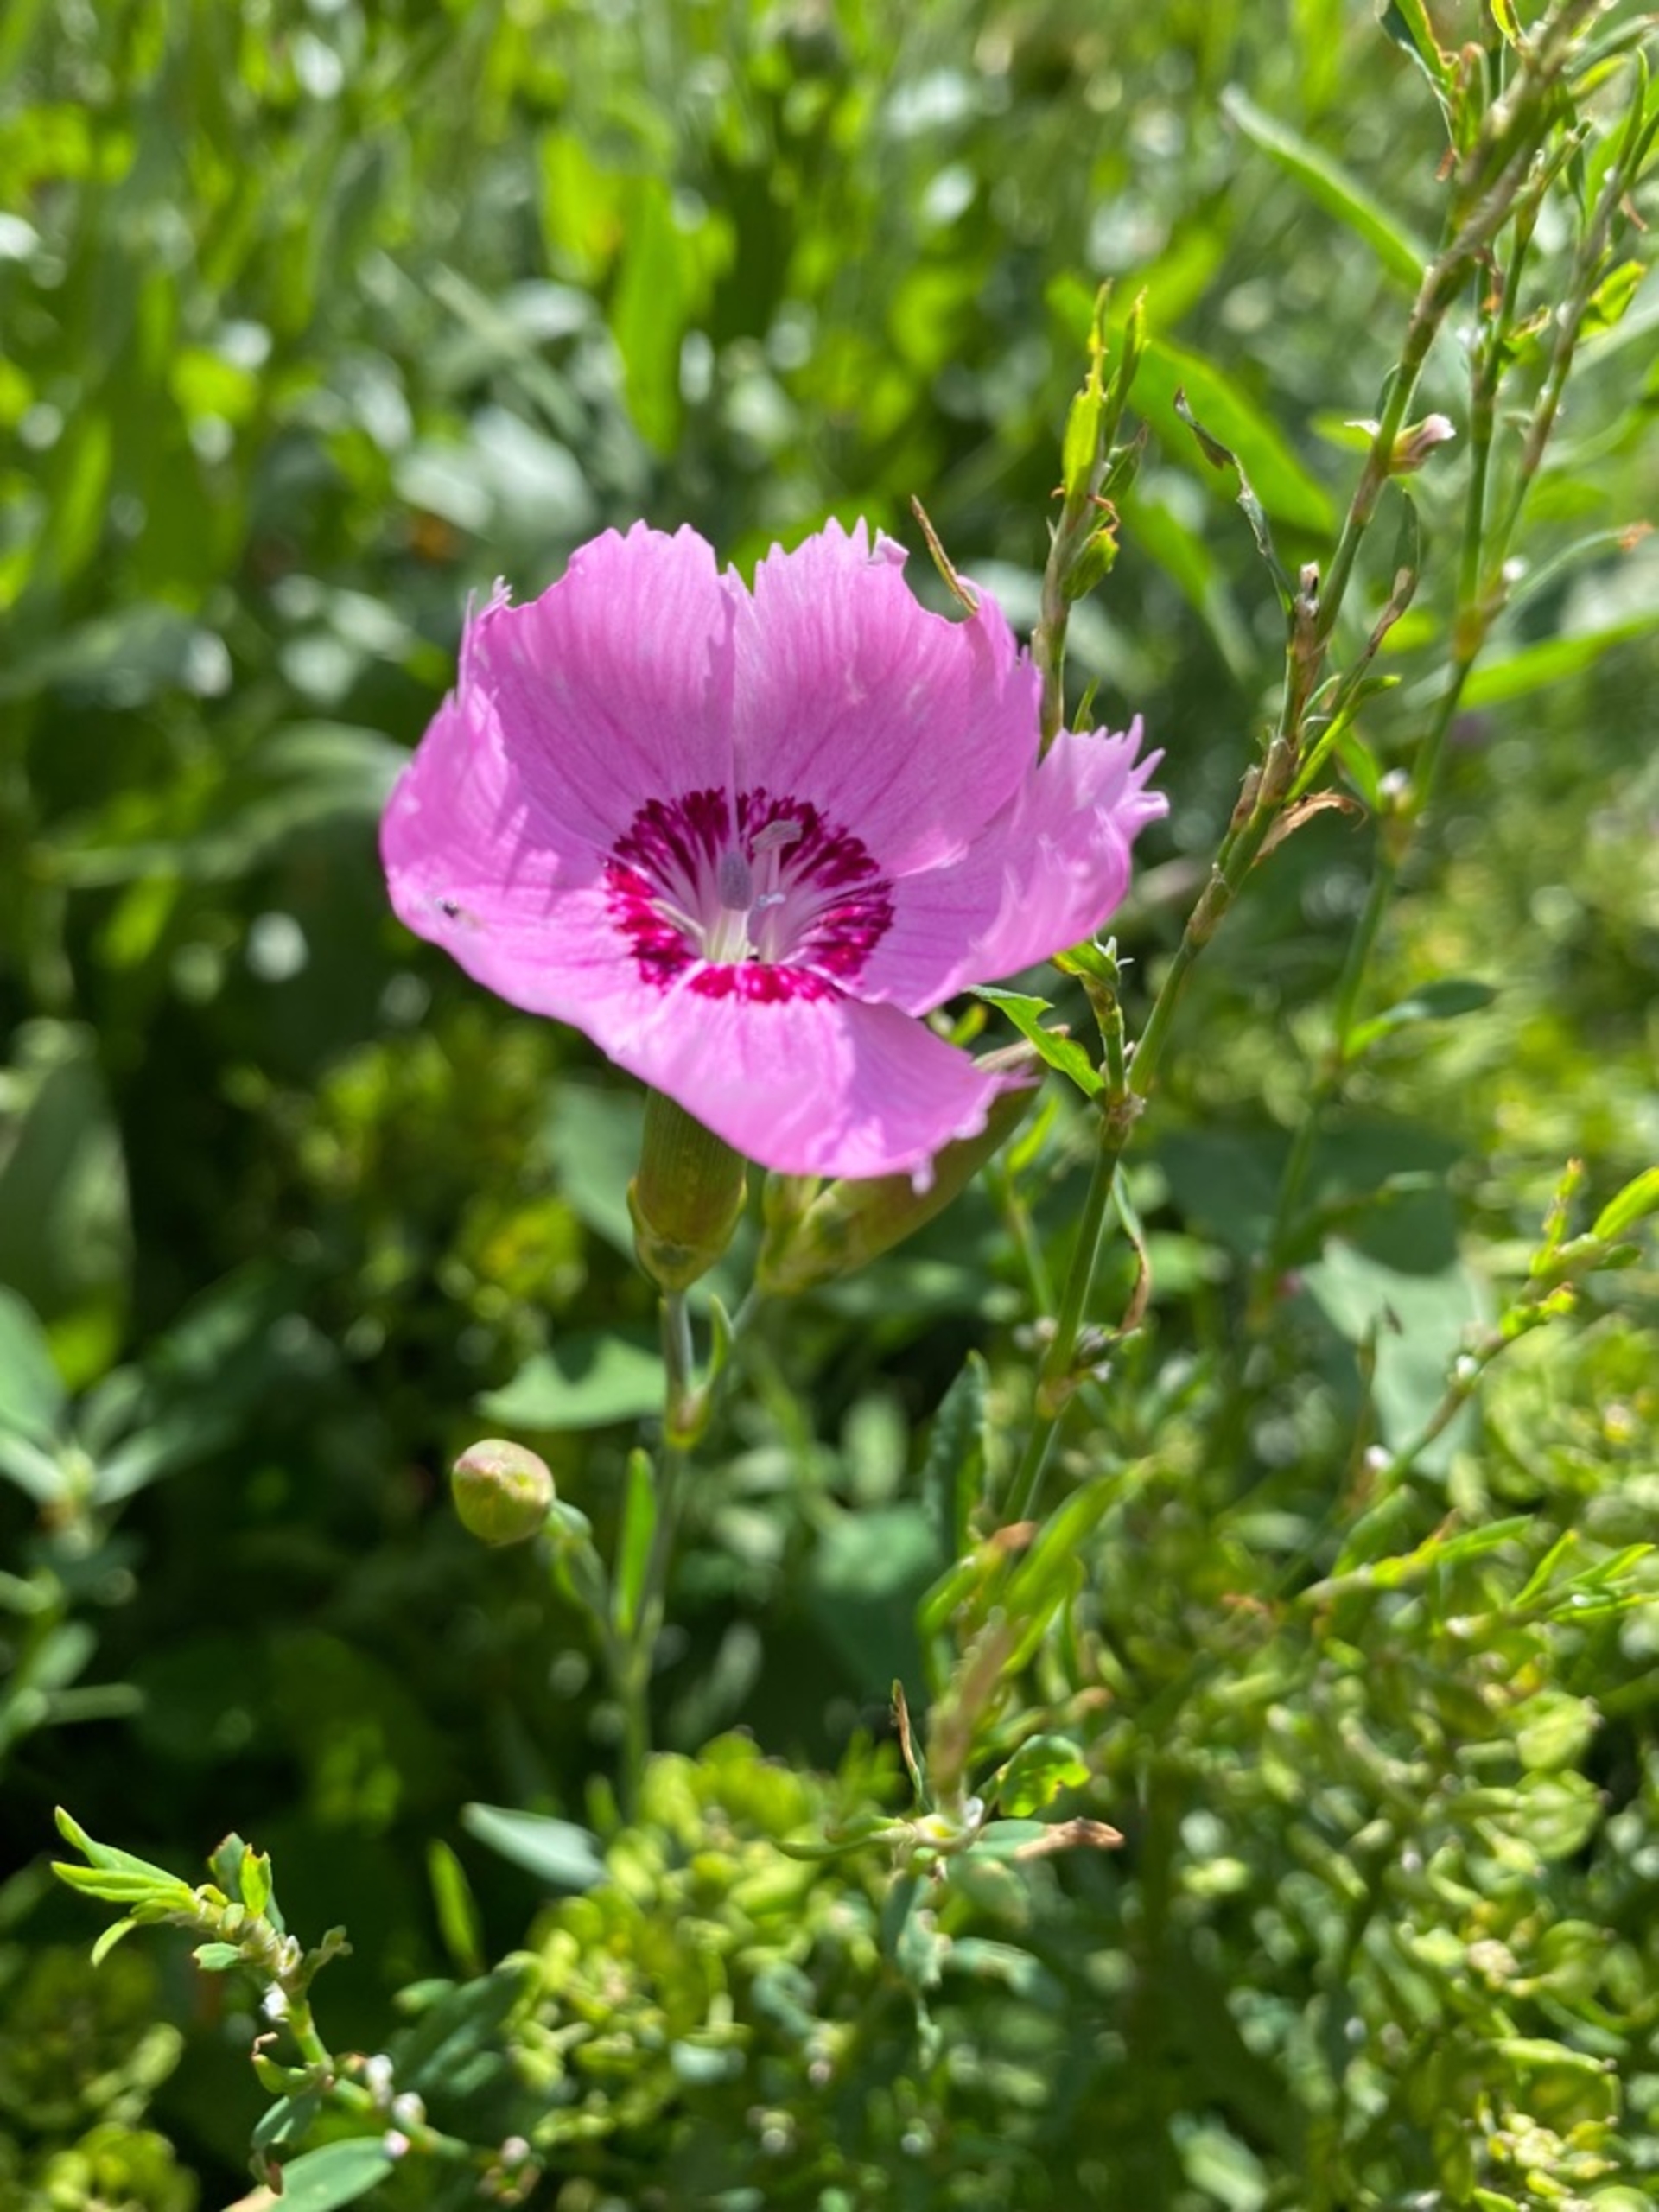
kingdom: Plantae
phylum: Tracheophyta
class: Magnoliopsida
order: Caryophyllales
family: Caryophyllaceae
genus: Dianthus
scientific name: Dianthus
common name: Nellikeslægten
